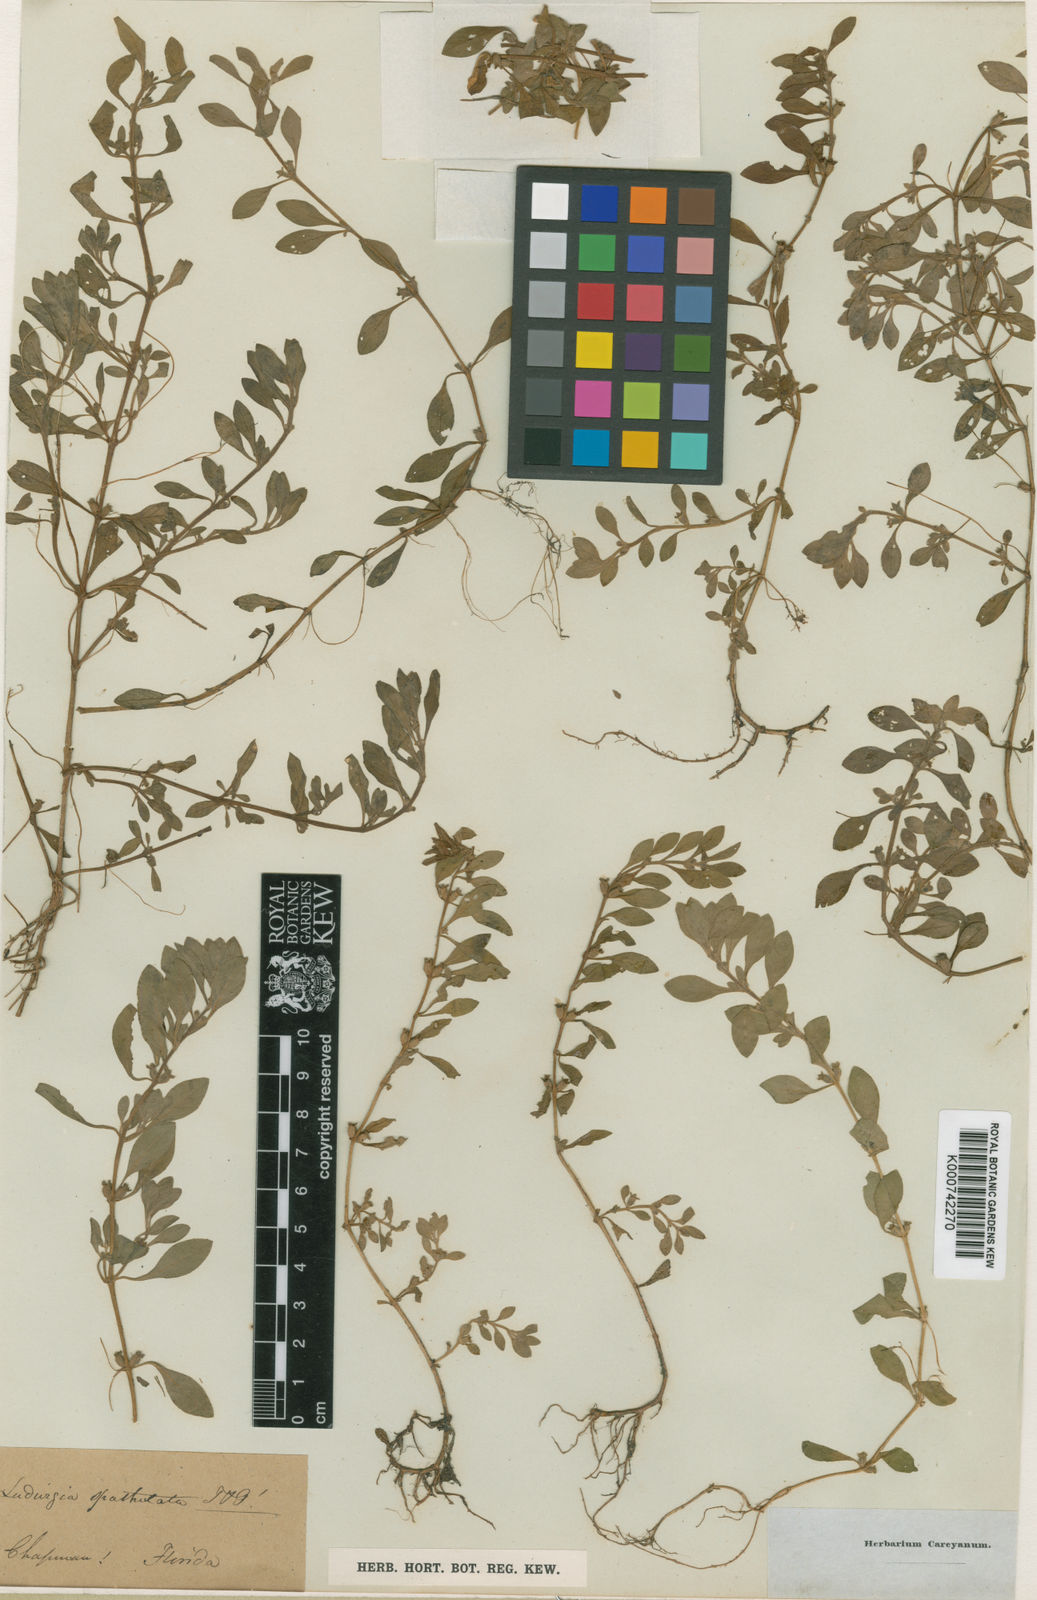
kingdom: Plantae
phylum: Tracheophyta
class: Magnoliopsida
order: Myrtales
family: Onagraceae
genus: Ludwigia
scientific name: Ludwigia
